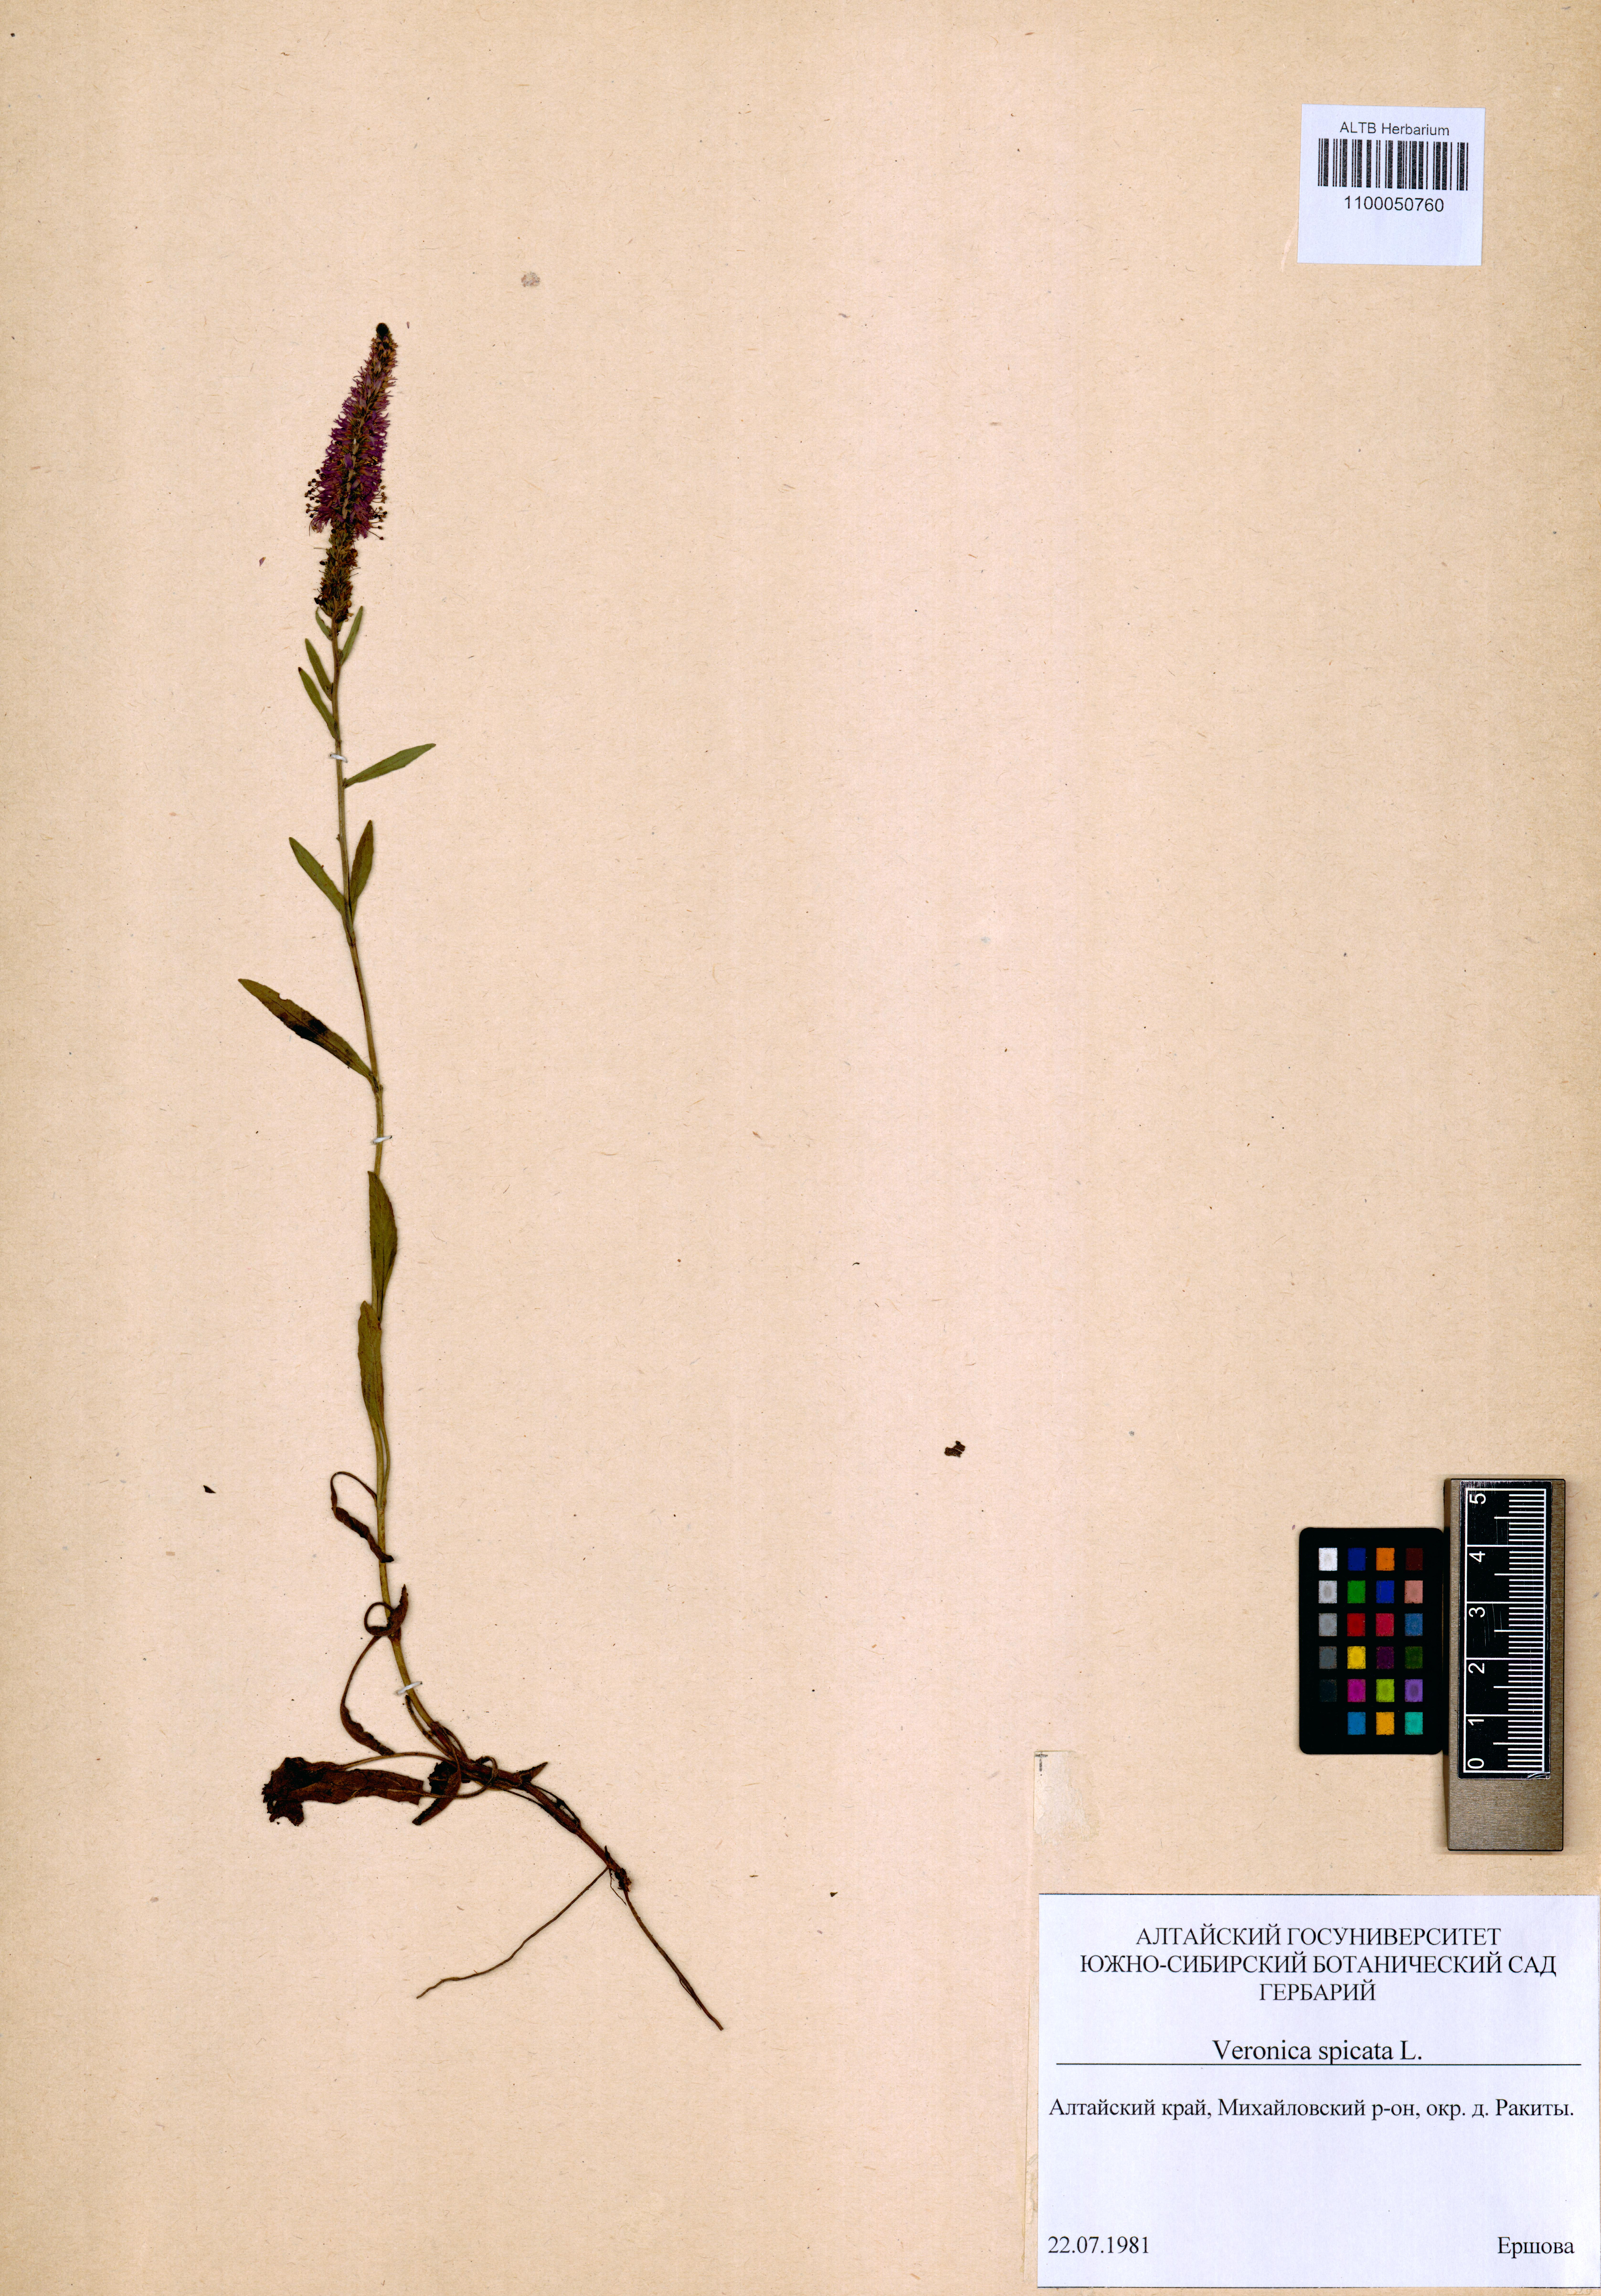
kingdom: Plantae
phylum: Tracheophyta
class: Magnoliopsida
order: Lamiales
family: Plantaginaceae
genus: Veronica
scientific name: Veronica spicata
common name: Spiked speedwell
